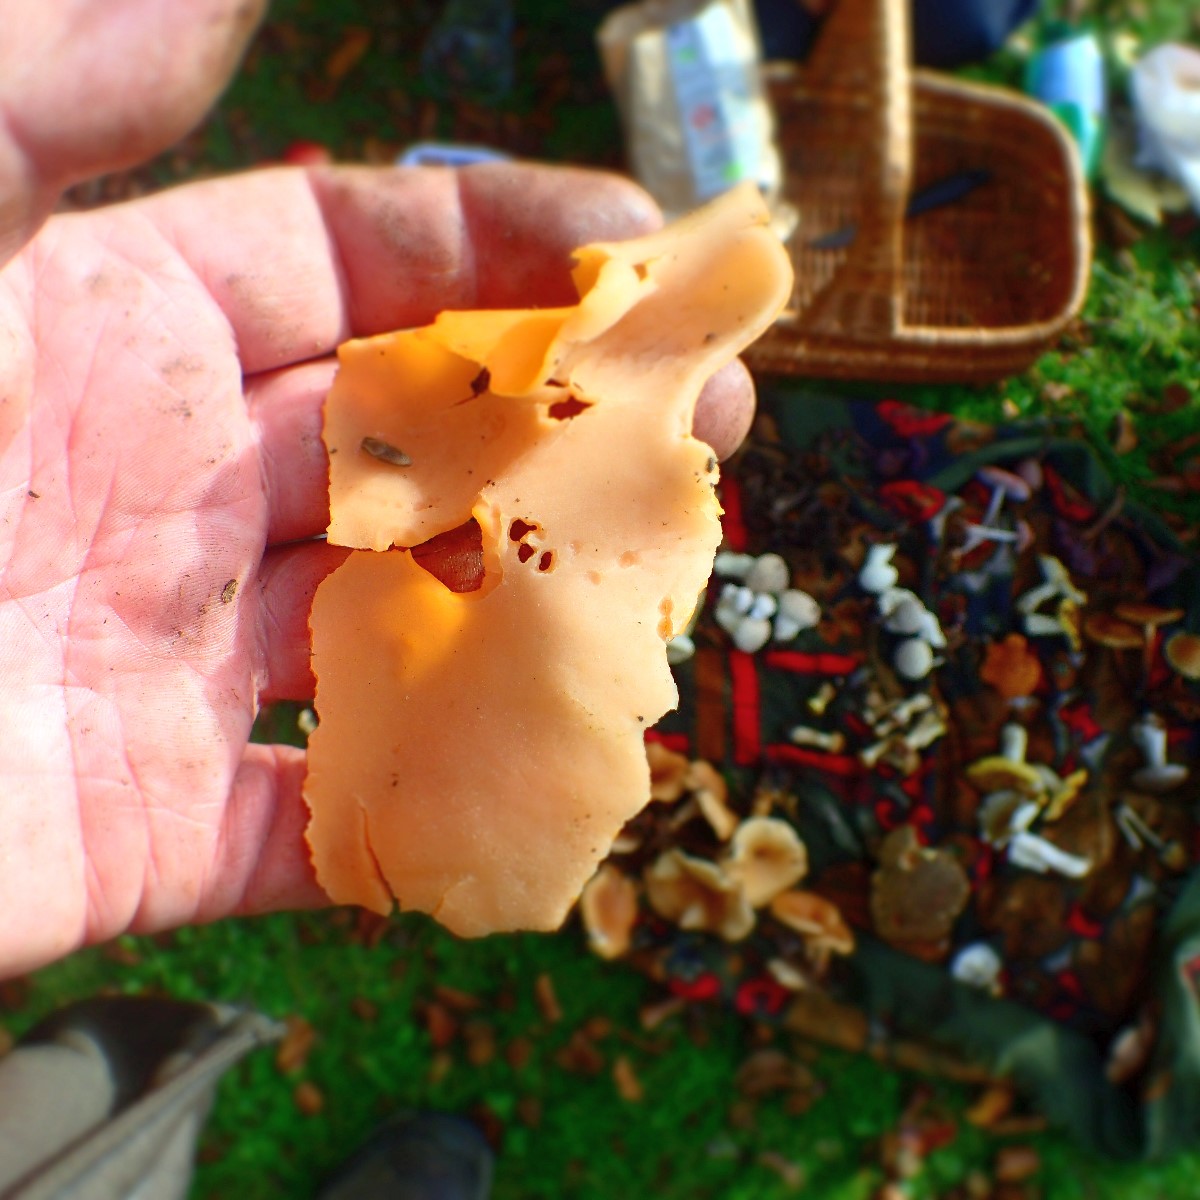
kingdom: Fungi
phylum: Ascomycota
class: Pezizomycetes
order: Pezizales
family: Pyronemataceae
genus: Aleuria
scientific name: Aleuria aurantia
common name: almindelig orangebæger
